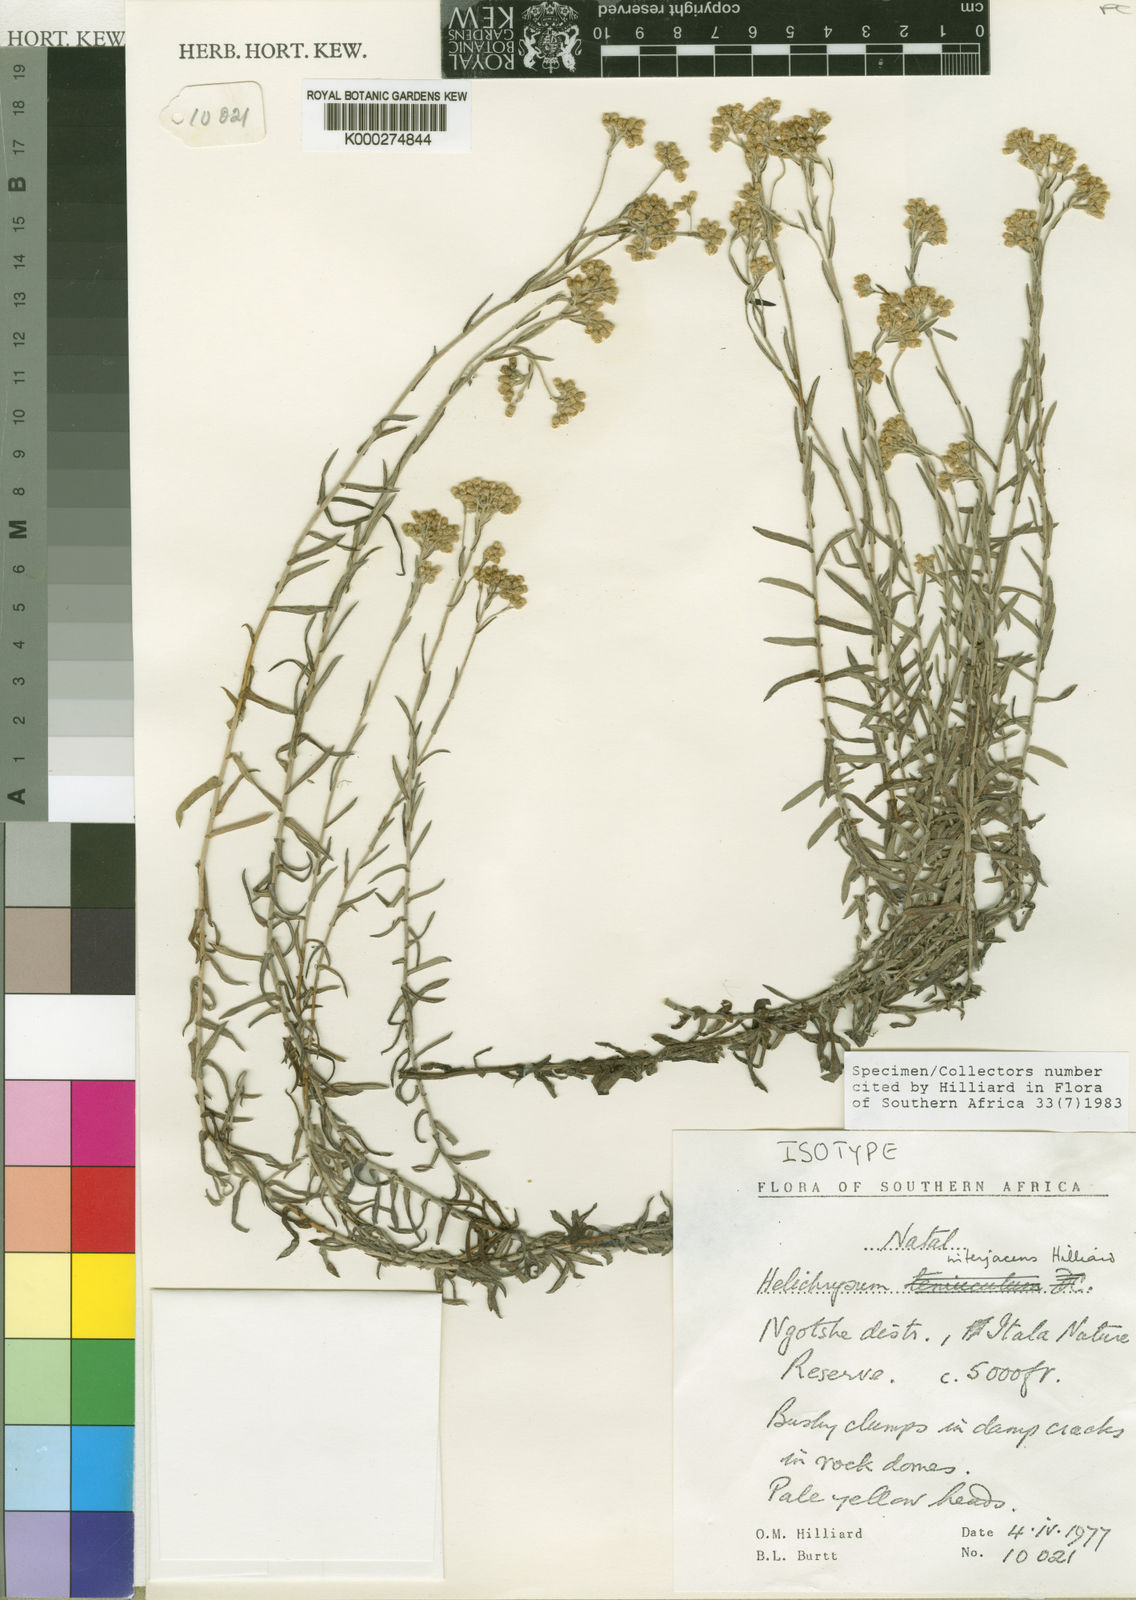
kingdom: Plantae
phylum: Tracheophyta
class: Magnoliopsida
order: Asterales
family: Asteraceae
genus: Helichrysum
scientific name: Helichrysum interjacens
